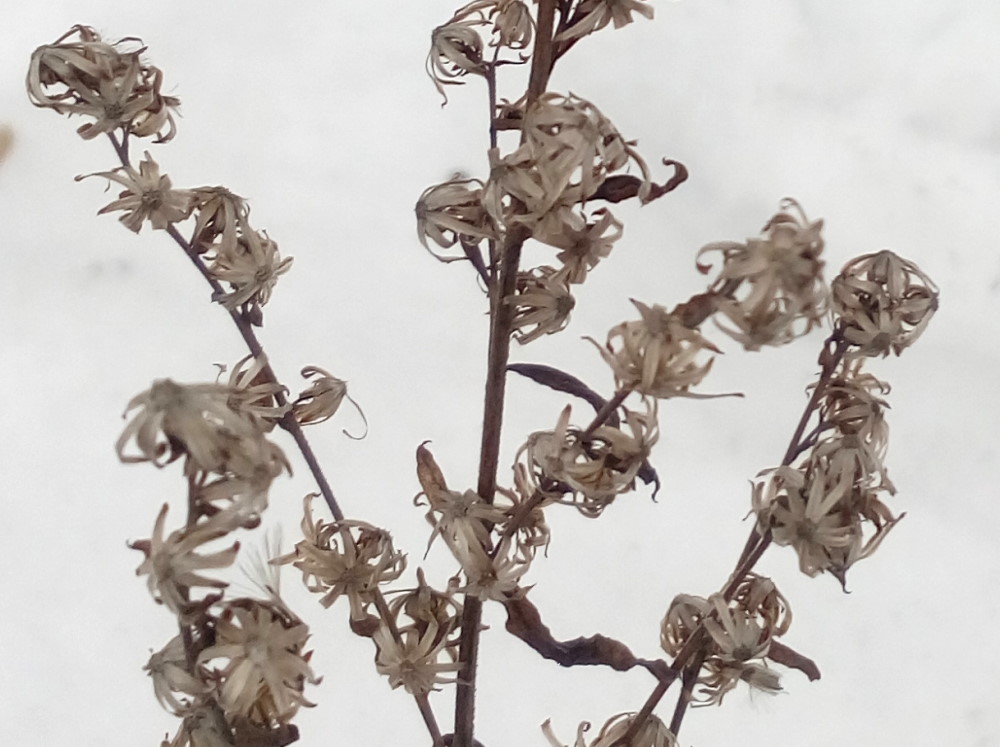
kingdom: Plantae
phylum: Tracheophyta
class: Magnoliopsida
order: Asterales
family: Asteraceae
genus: Solidago
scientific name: Solidago virgaurea
